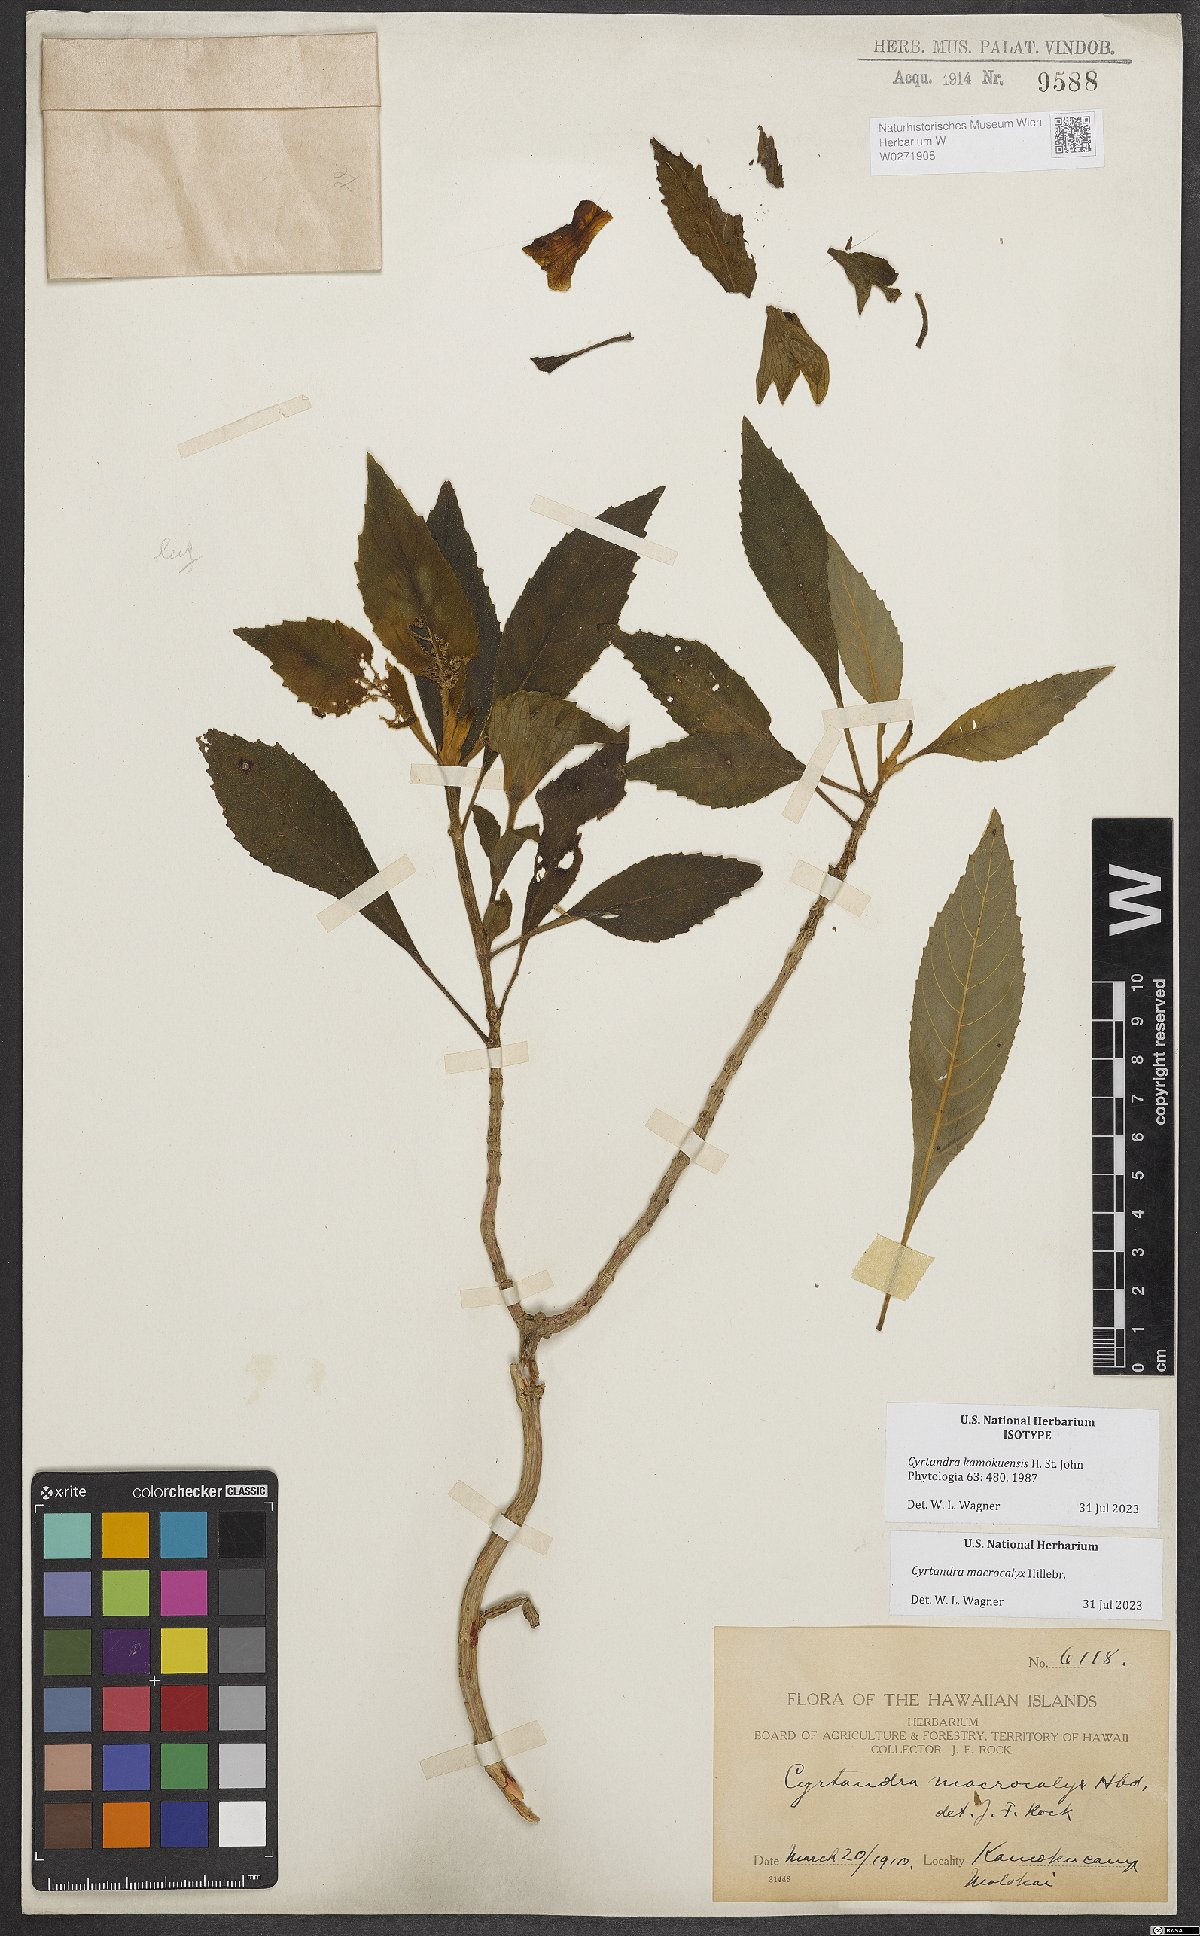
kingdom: Plantae
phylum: Tracheophyta
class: Magnoliopsida
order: Lamiales
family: Gesneriaceae
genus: Cyrtandra
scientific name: Cyrtandra macrocalyx
